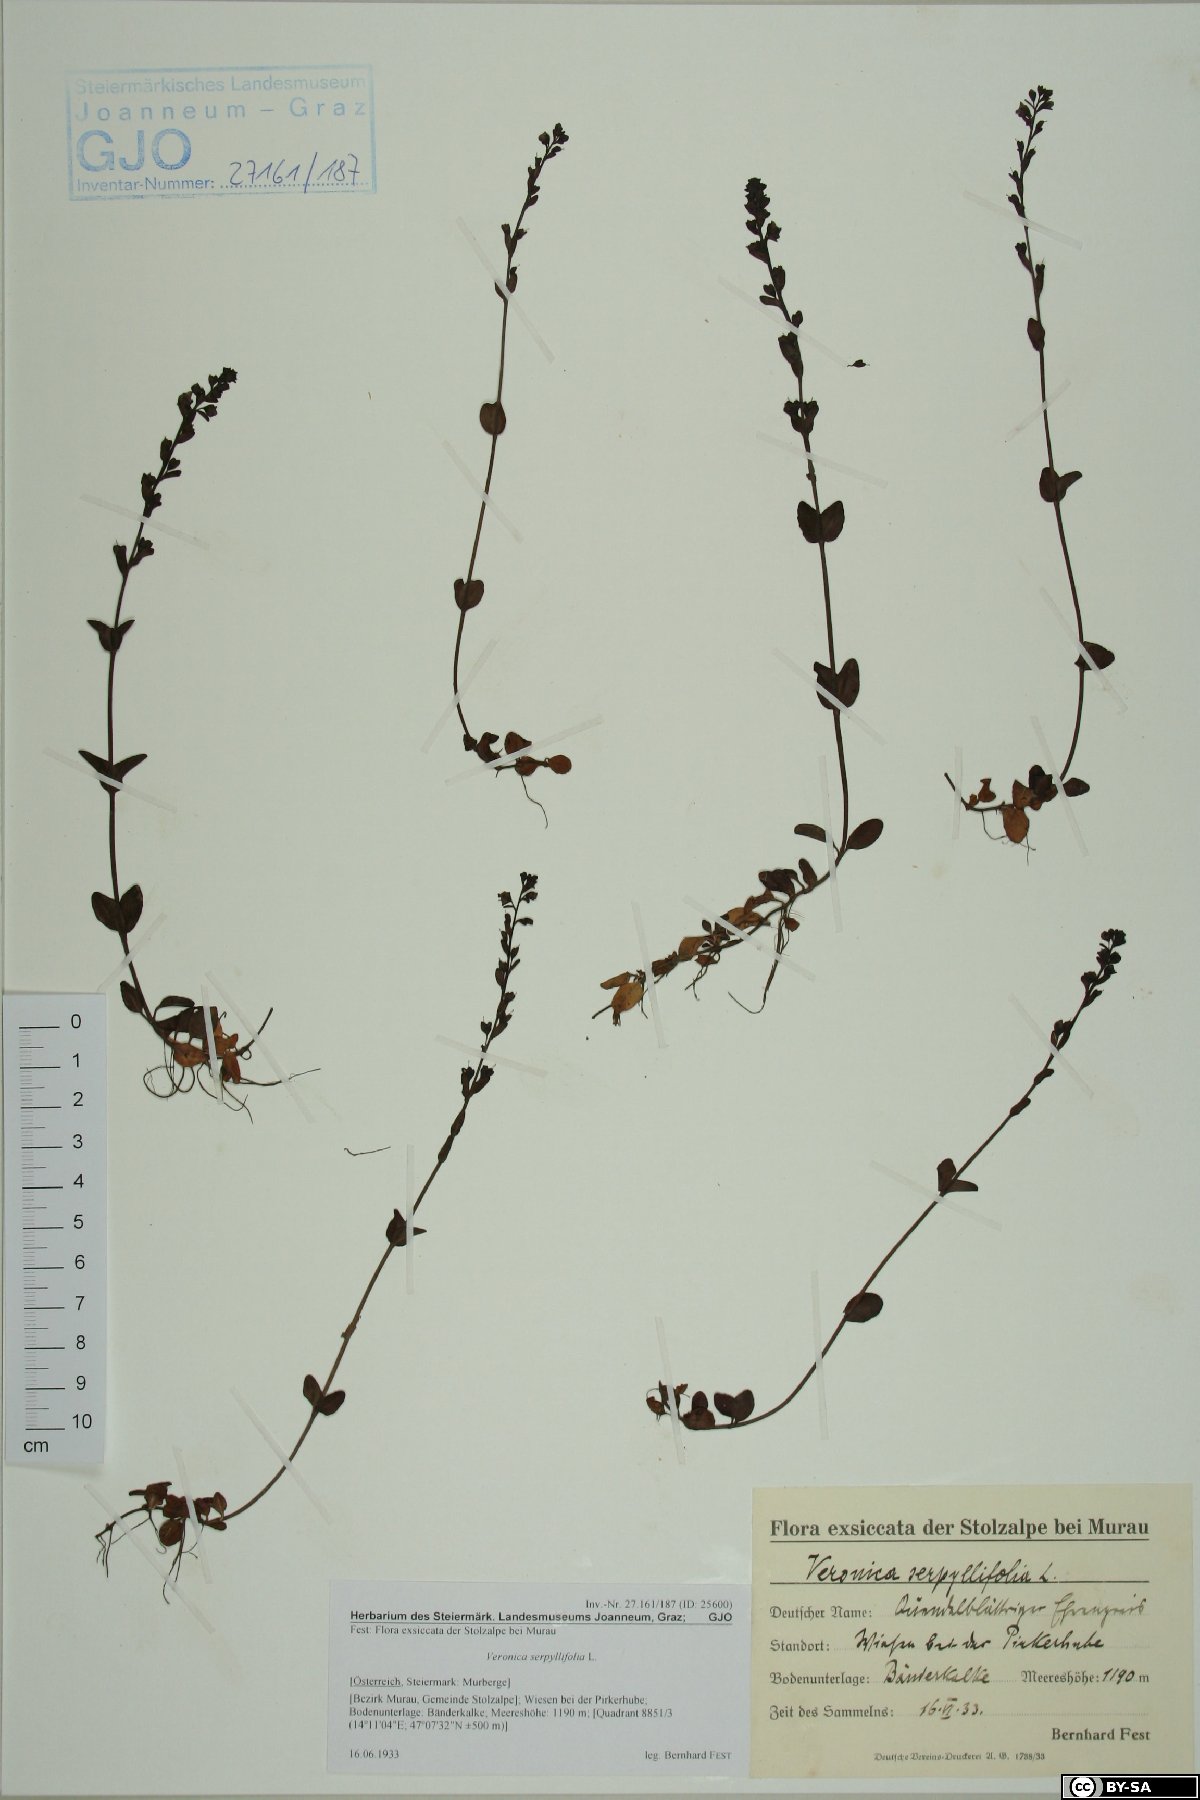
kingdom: Plantae
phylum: Tracheophyta
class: Magnoliopsida
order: Lamiales
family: Plantaginaceae
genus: Veronica
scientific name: Veronica serpyllifolia
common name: Thyme-leaved speedwell
